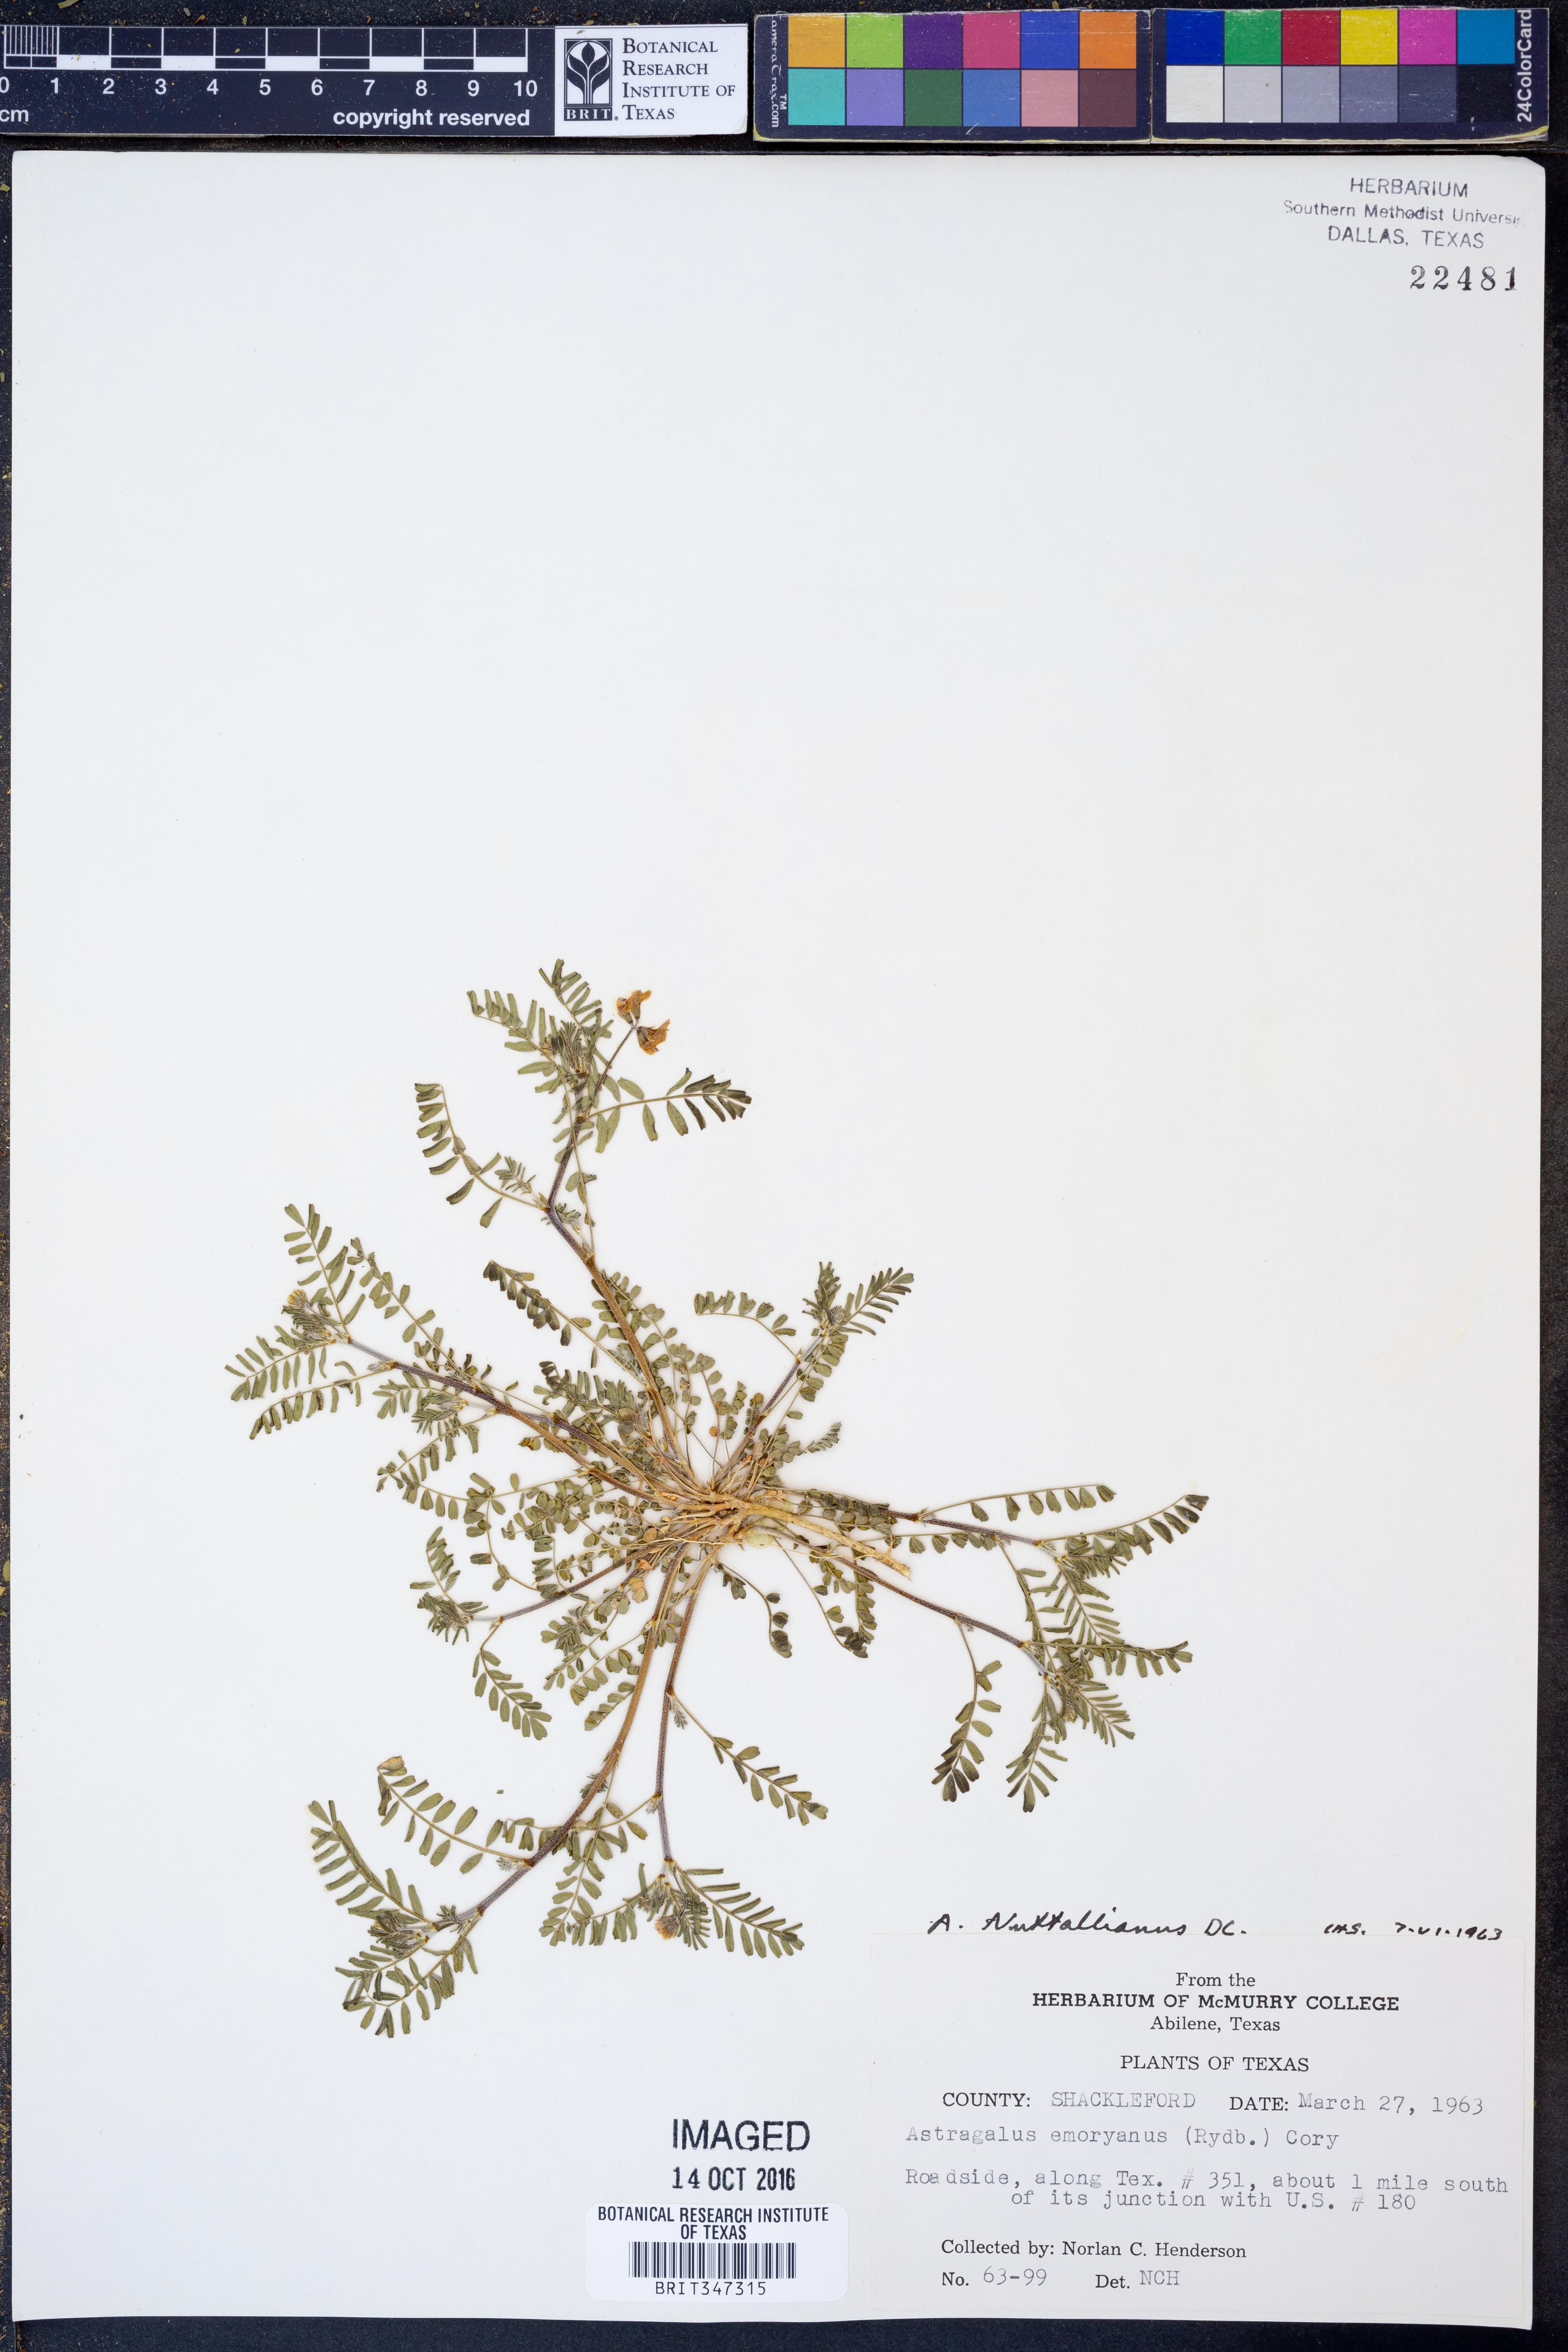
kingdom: Plantae
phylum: Tracheophyta
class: Magnoliopsida
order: Fabales
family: Fabaceae
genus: Astragalus
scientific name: Astragalus nuttallianus
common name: Smallflowered milkvetch
